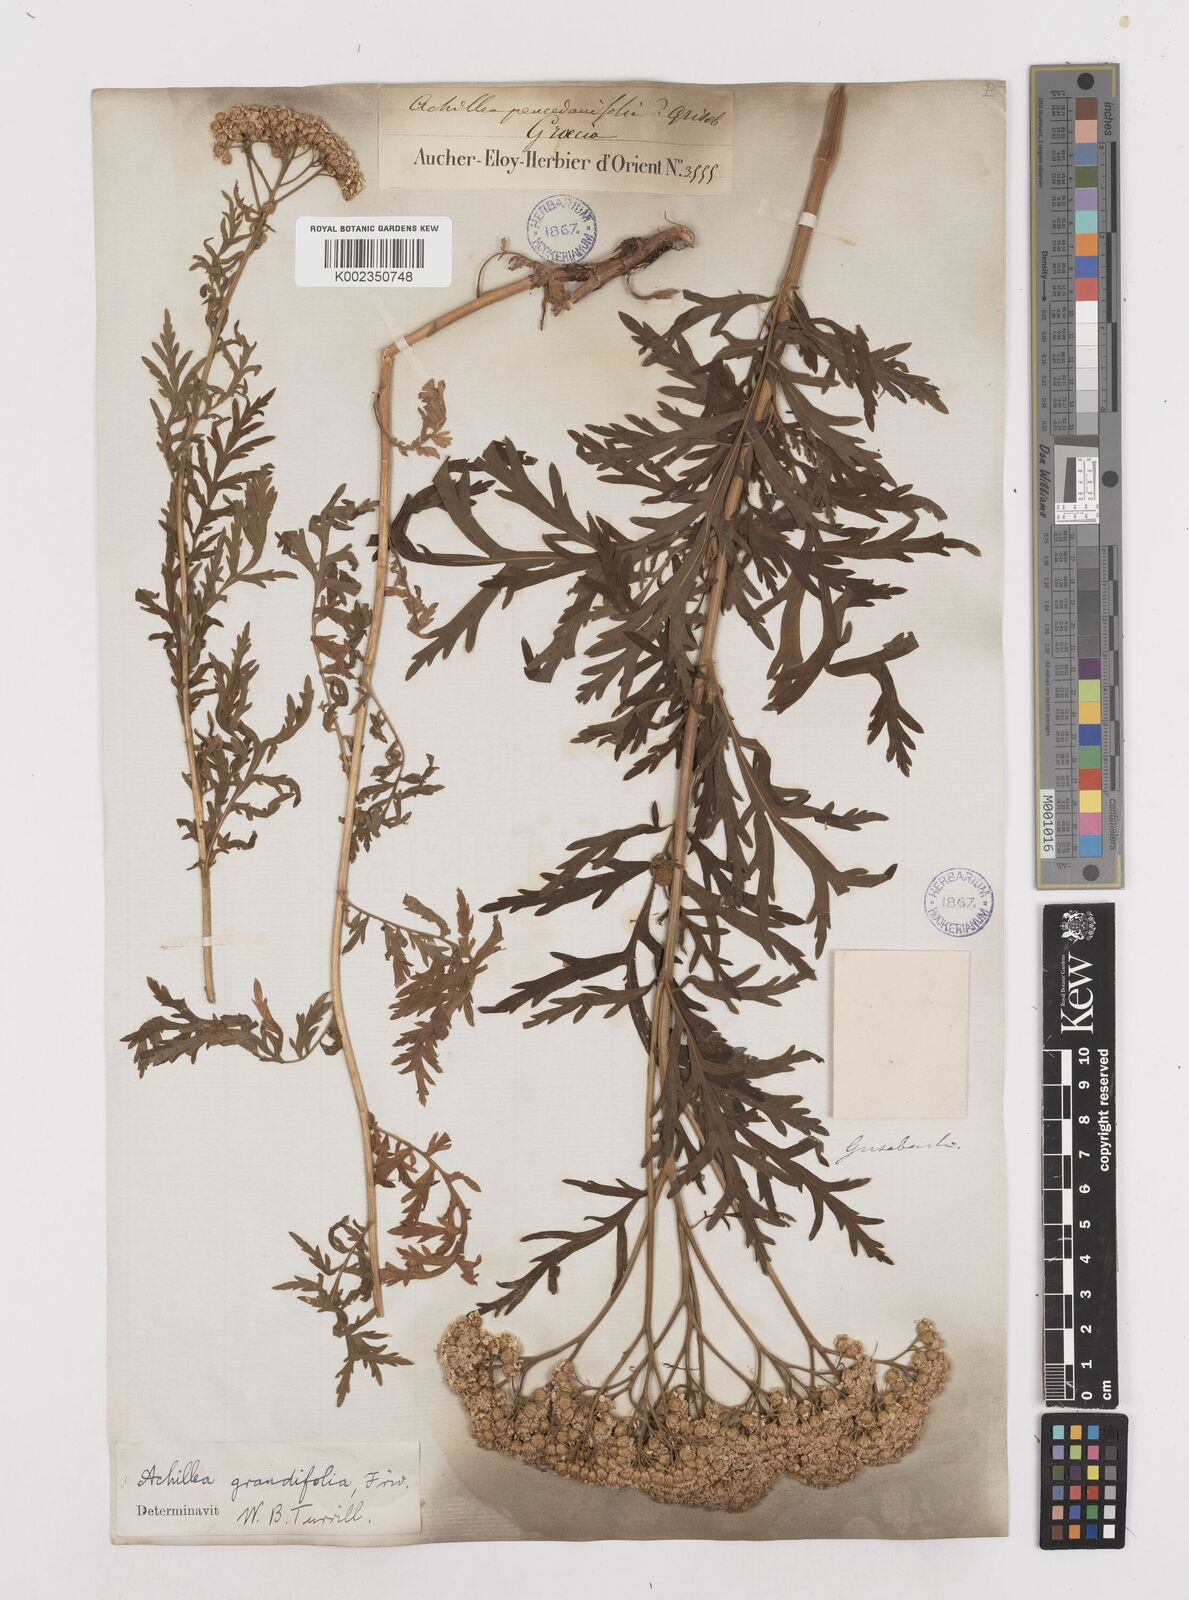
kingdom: Plantae
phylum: Tracheophyta
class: Magnoliopsida
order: Asterales
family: Asteraceae
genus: Achillea
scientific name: Achillea grandifolia
